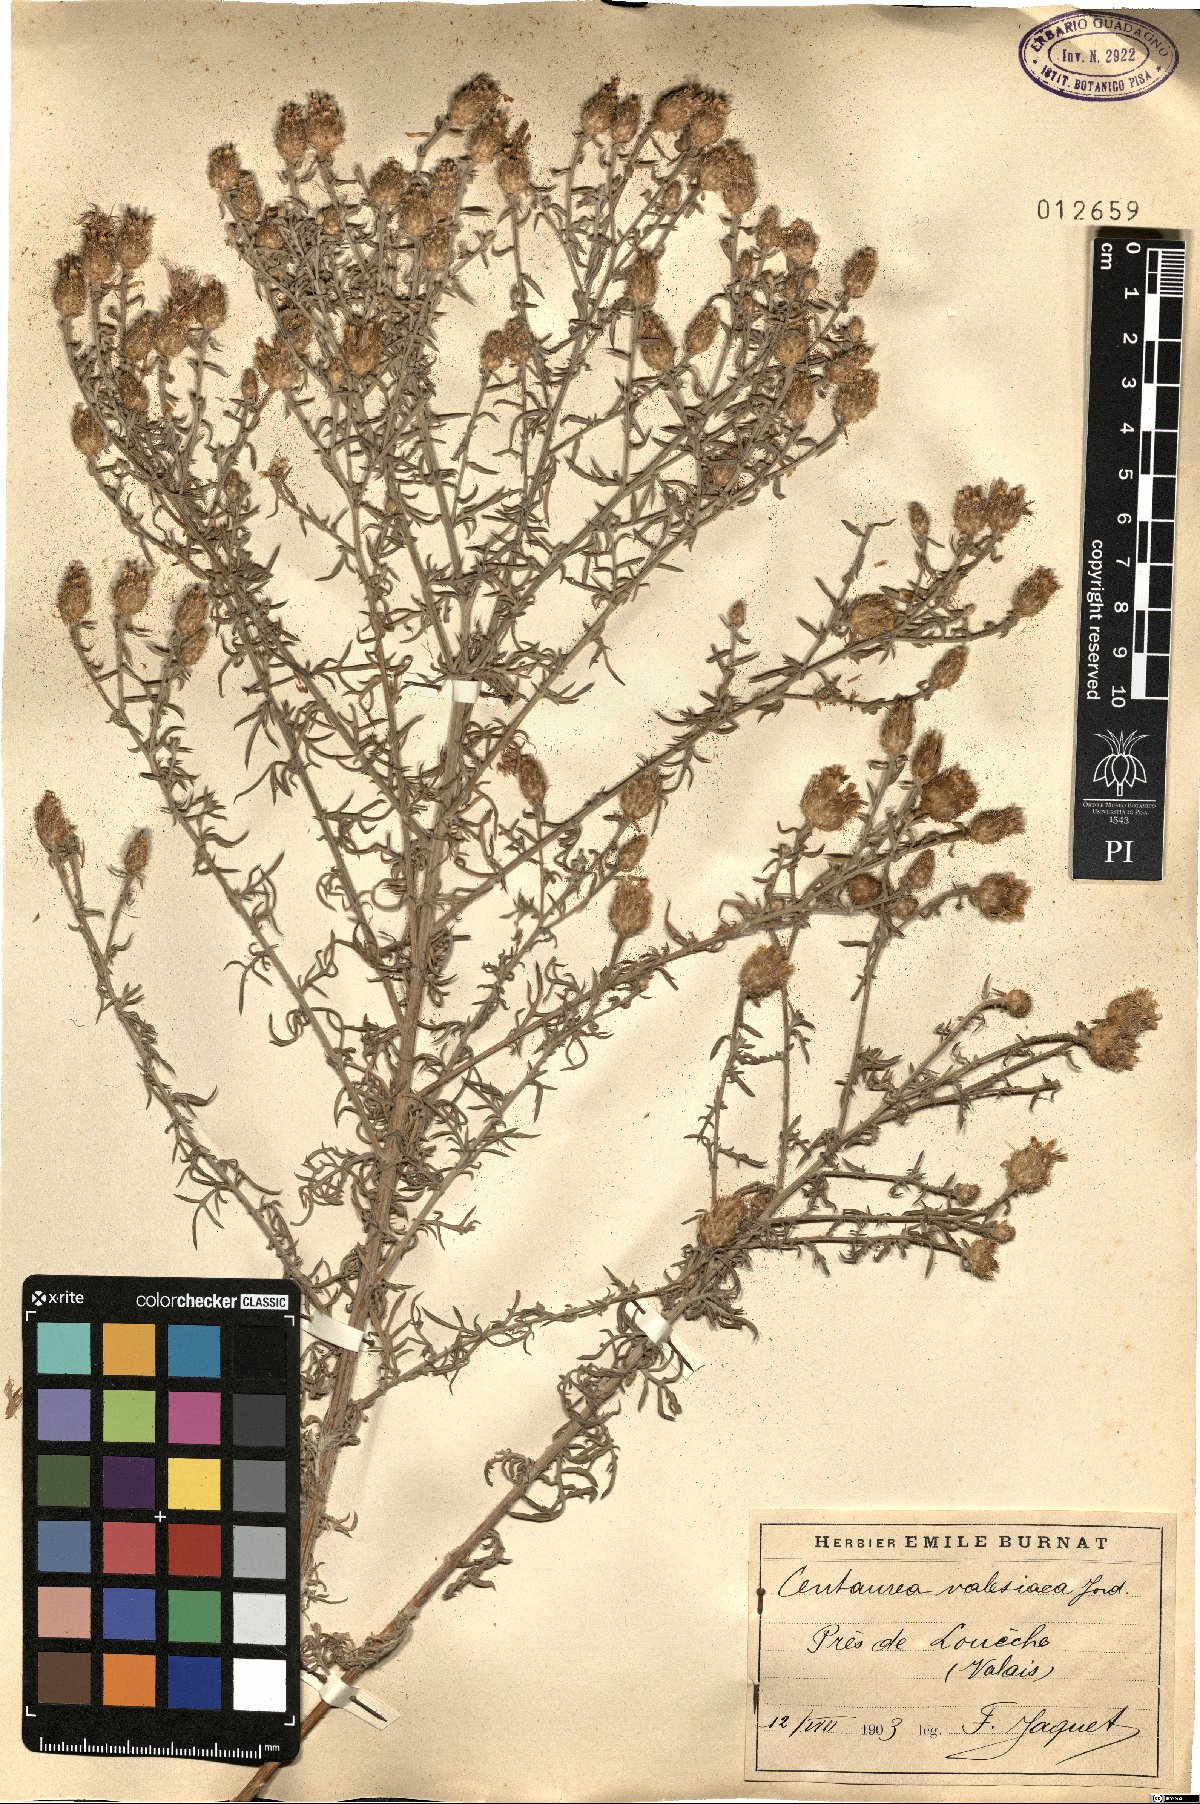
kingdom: Plantae
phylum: Tracheophyta
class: Magnoliopsida
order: Asterales
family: Asteraceae
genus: Centaurea
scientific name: Centaurea valesiaca
